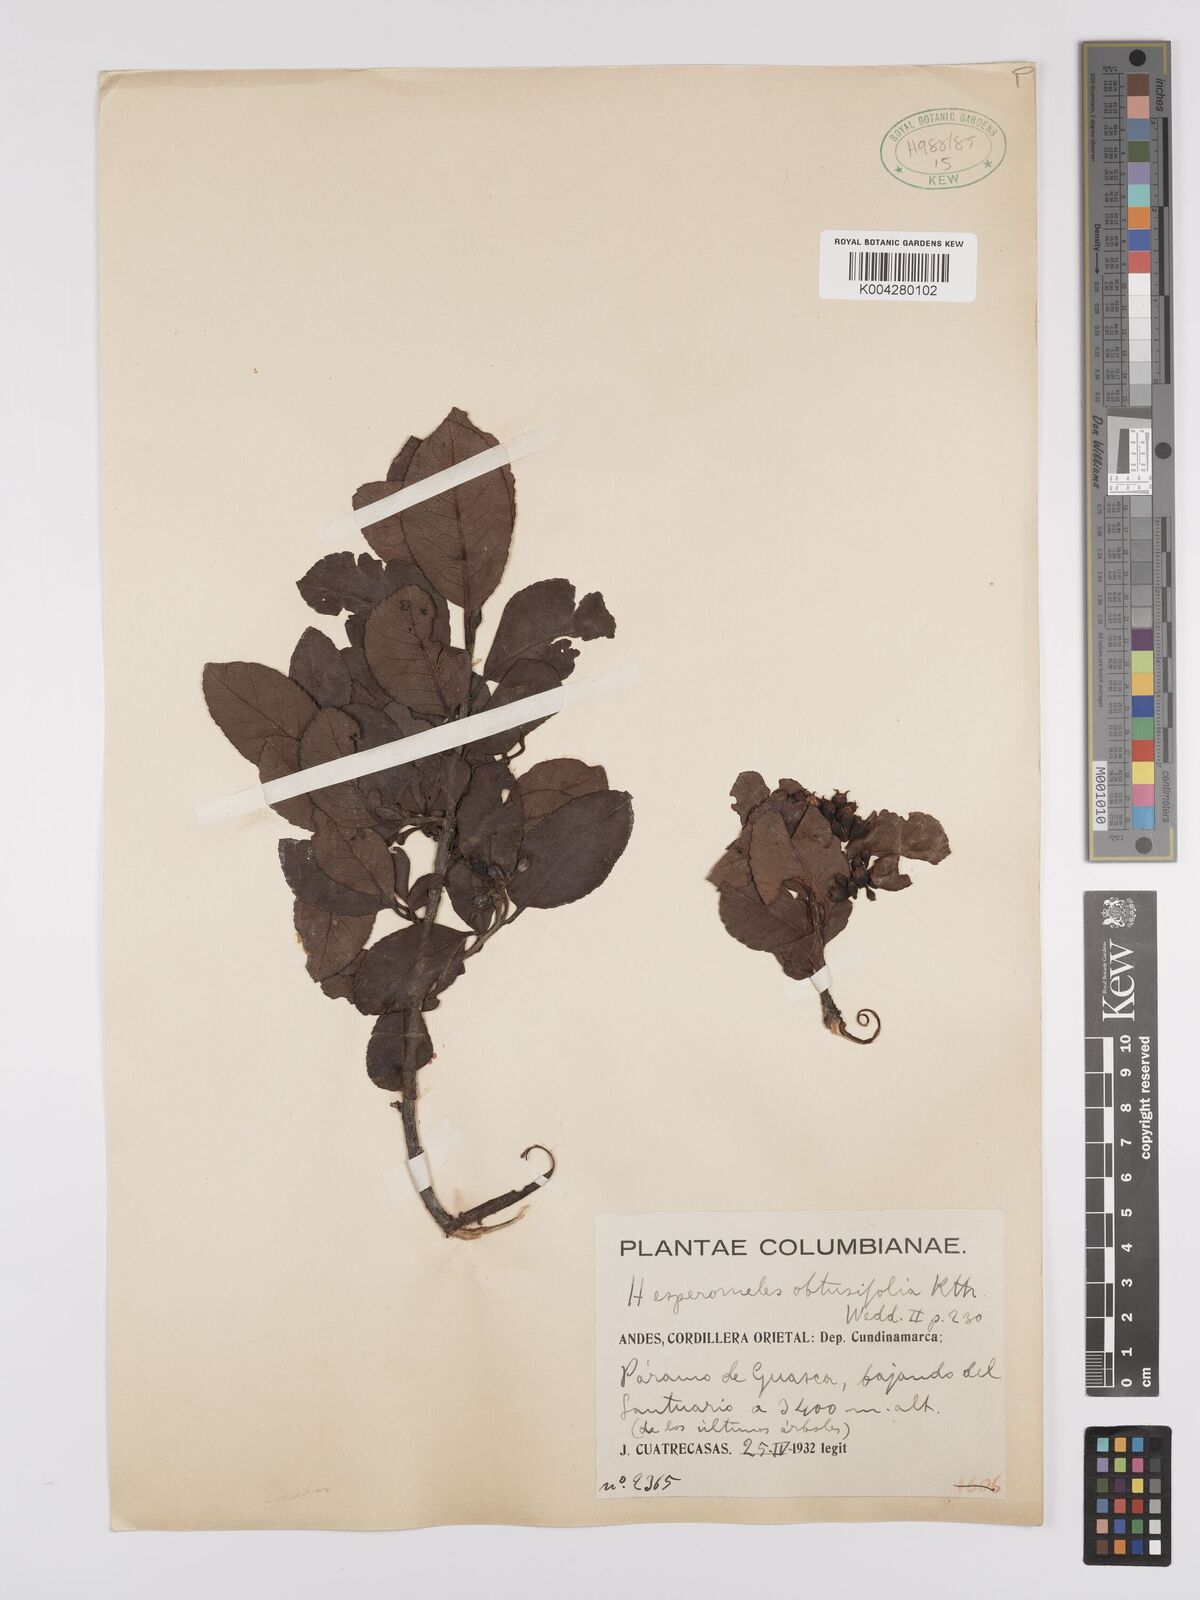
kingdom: Plantae
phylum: Tracheophyta
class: Magnoliopsida
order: Rosales
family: Rosaceae
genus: Hesperomeles
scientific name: Hesperomeles obtusifolia
